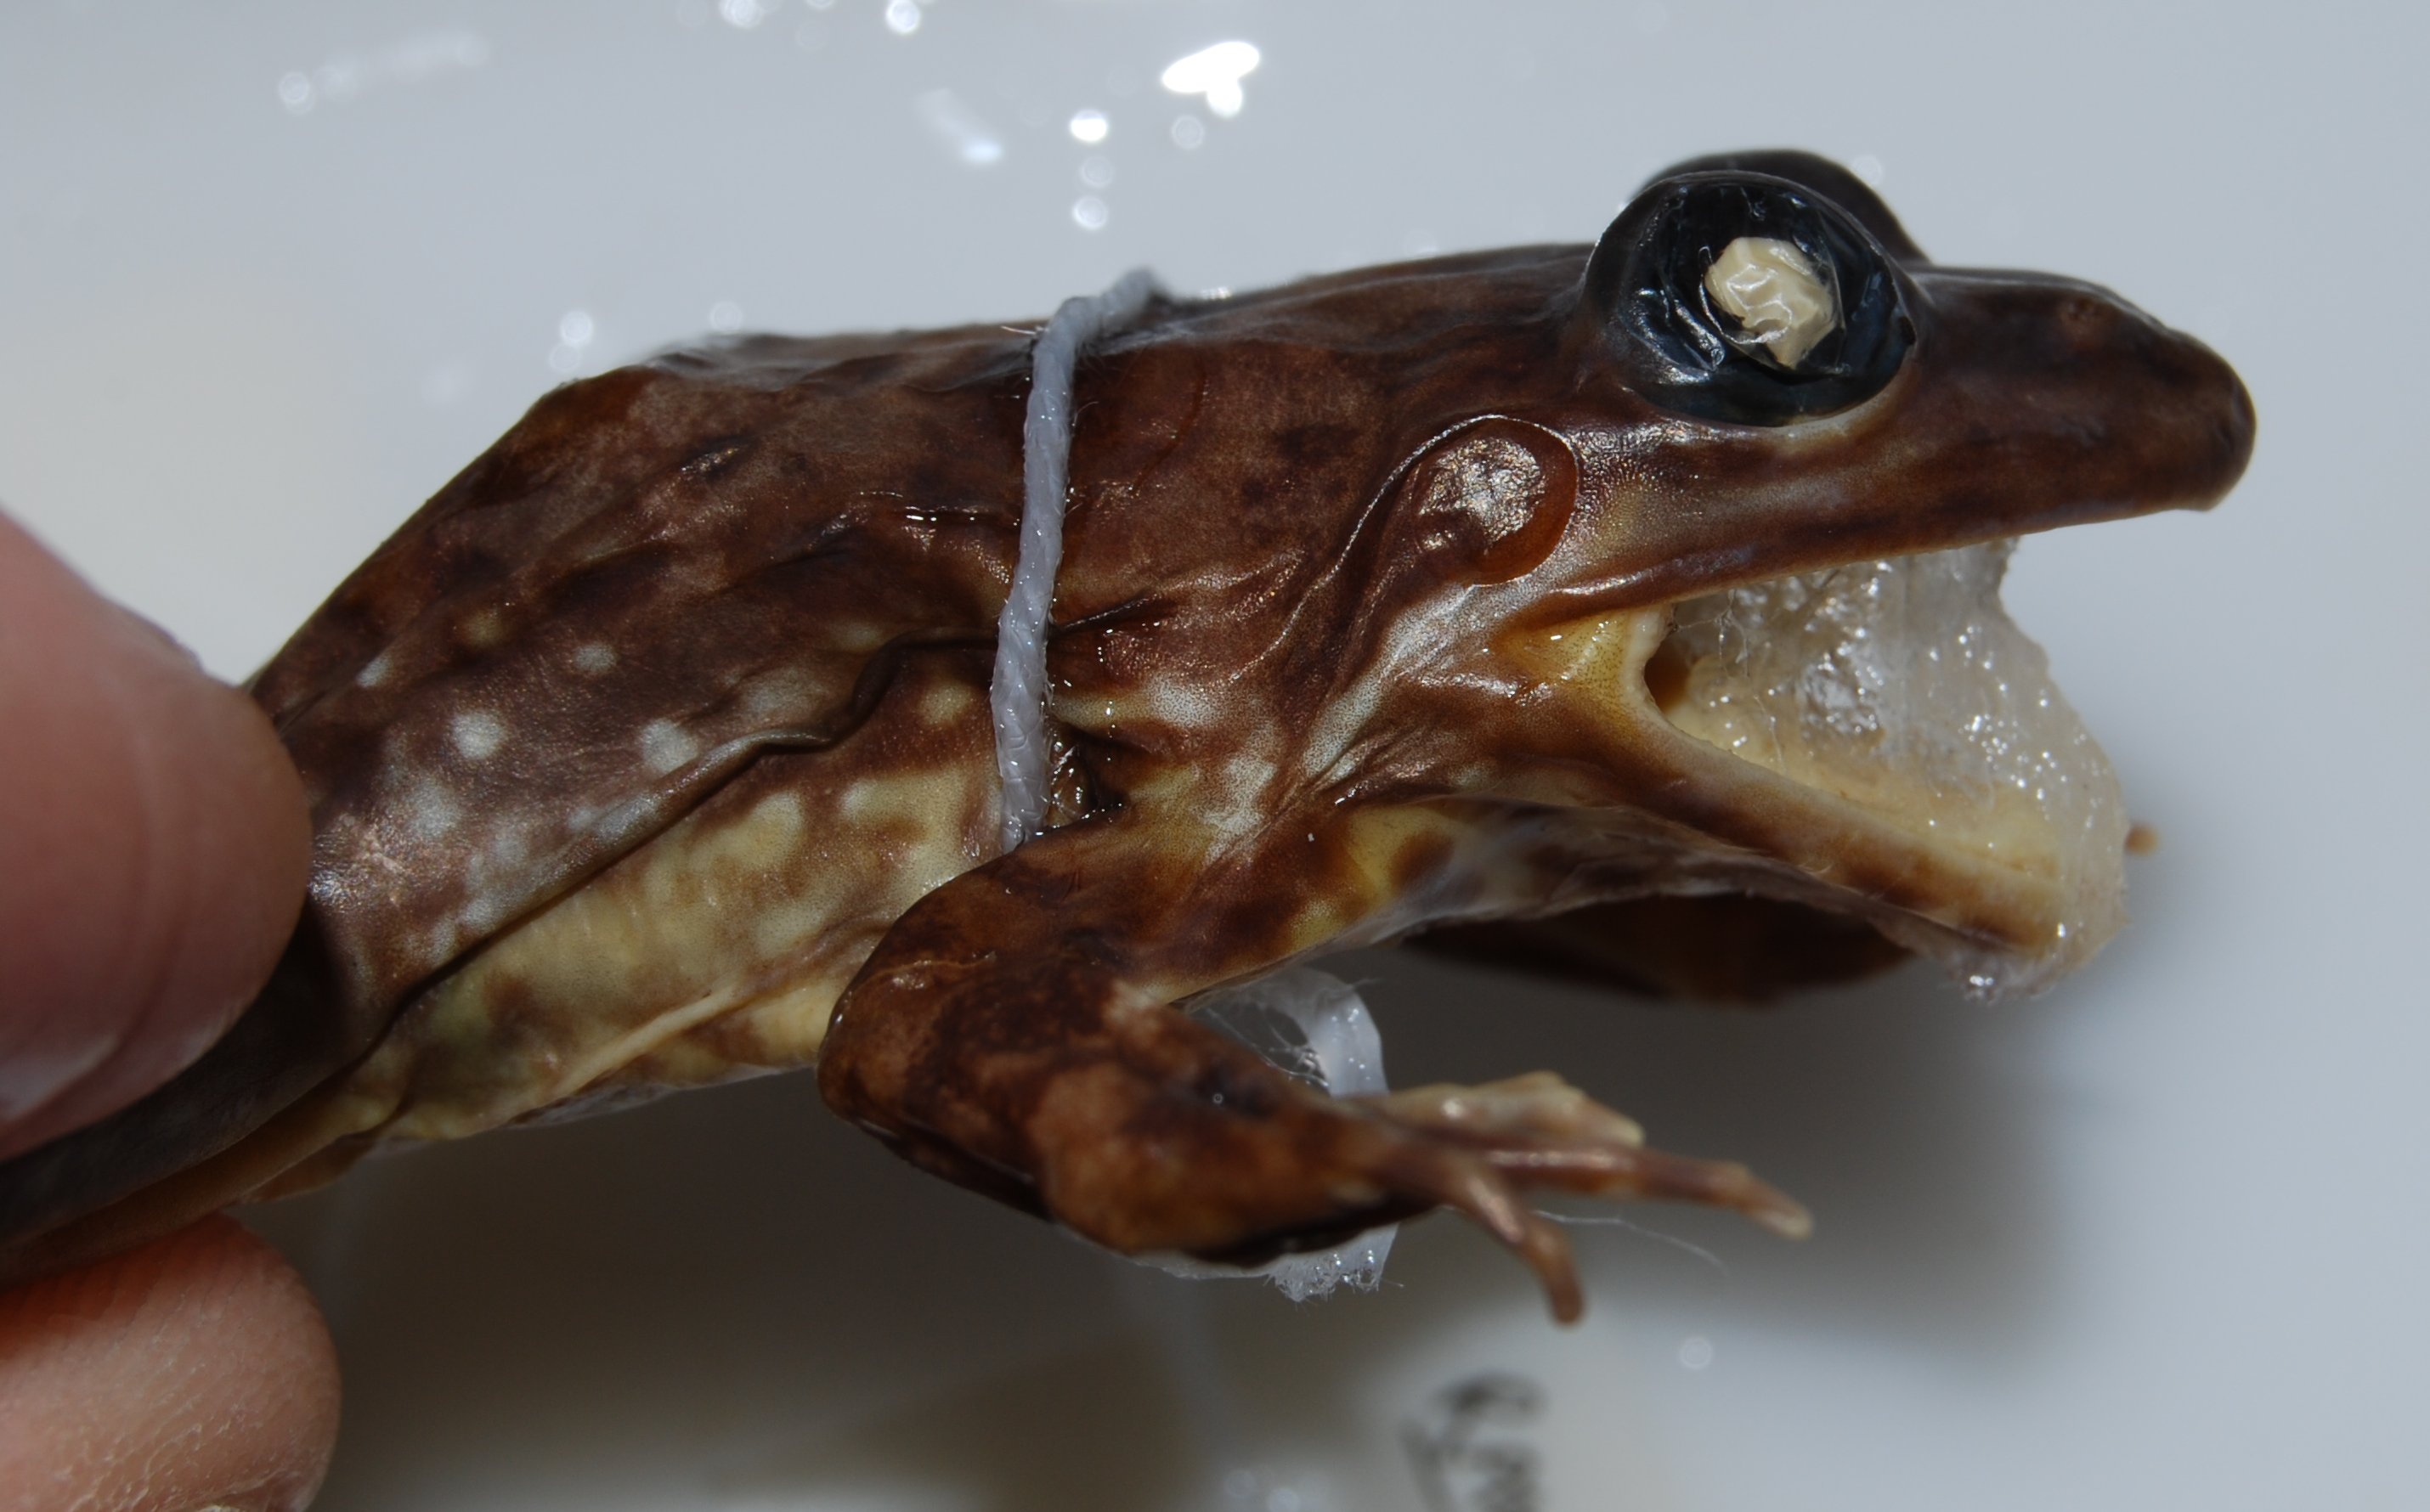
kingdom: Animalia
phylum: Chordata
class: Amphibia
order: Anura
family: Pyxicephalidae
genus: Amietia
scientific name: Amietia fuscigula
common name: Cape rana
